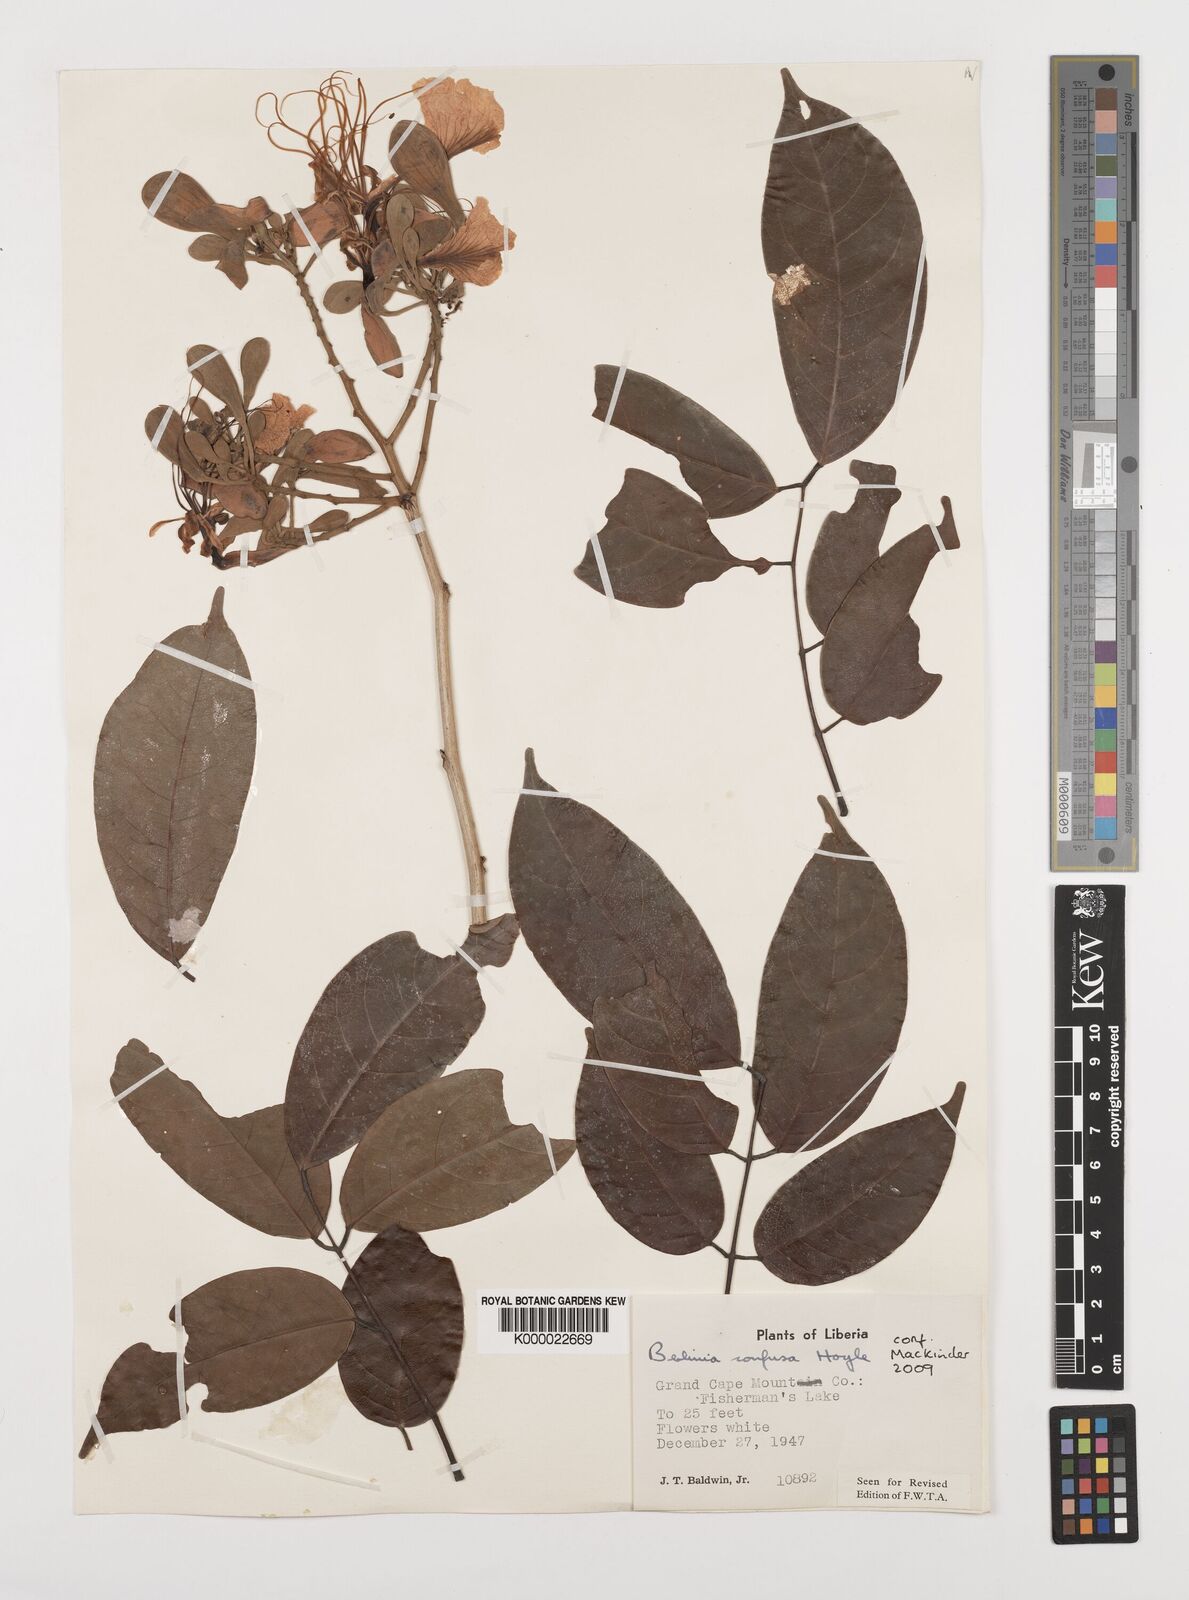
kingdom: Plantae
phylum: Tracheophyta
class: Magnoliopsida
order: Fabales
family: Fabaceae
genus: Berlinia
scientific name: Berlinia confusa
